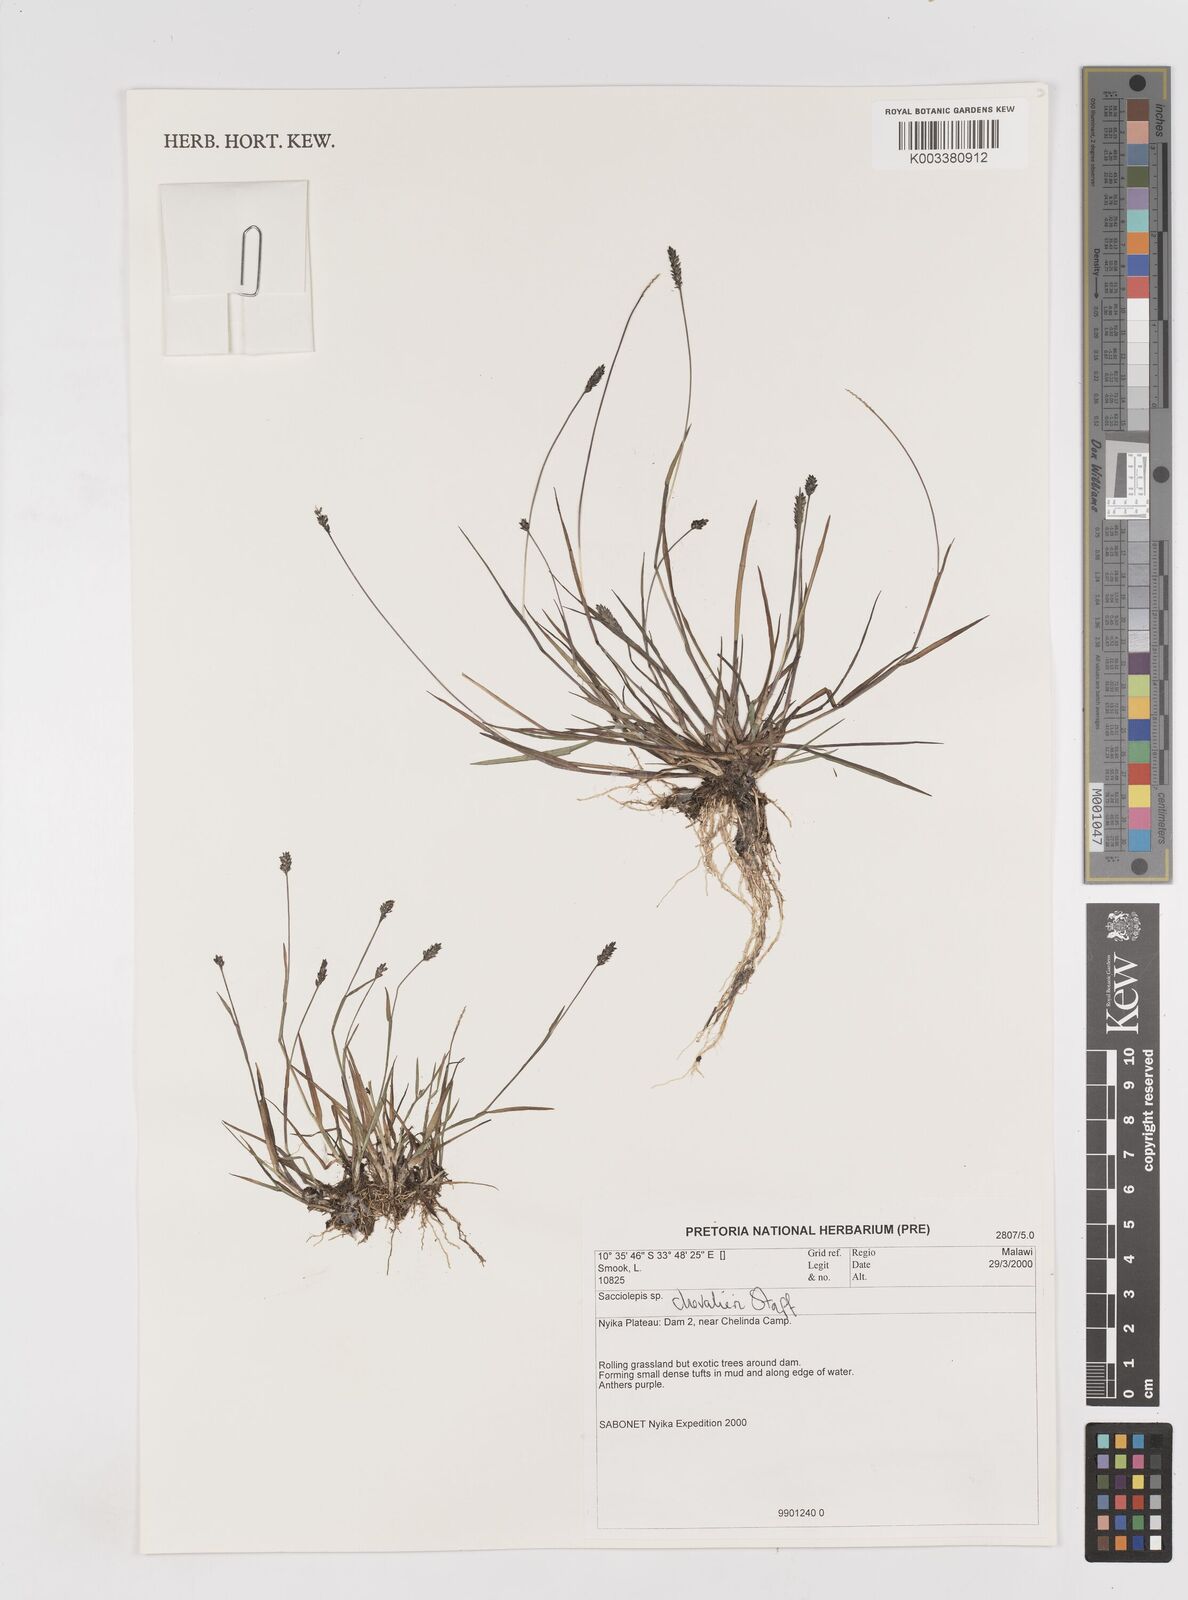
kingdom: Plantae
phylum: Tracheophyta
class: Liliopsida
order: Poales
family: Poaceae
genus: Sacciolepis
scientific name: Sacciolepis chevalieri
